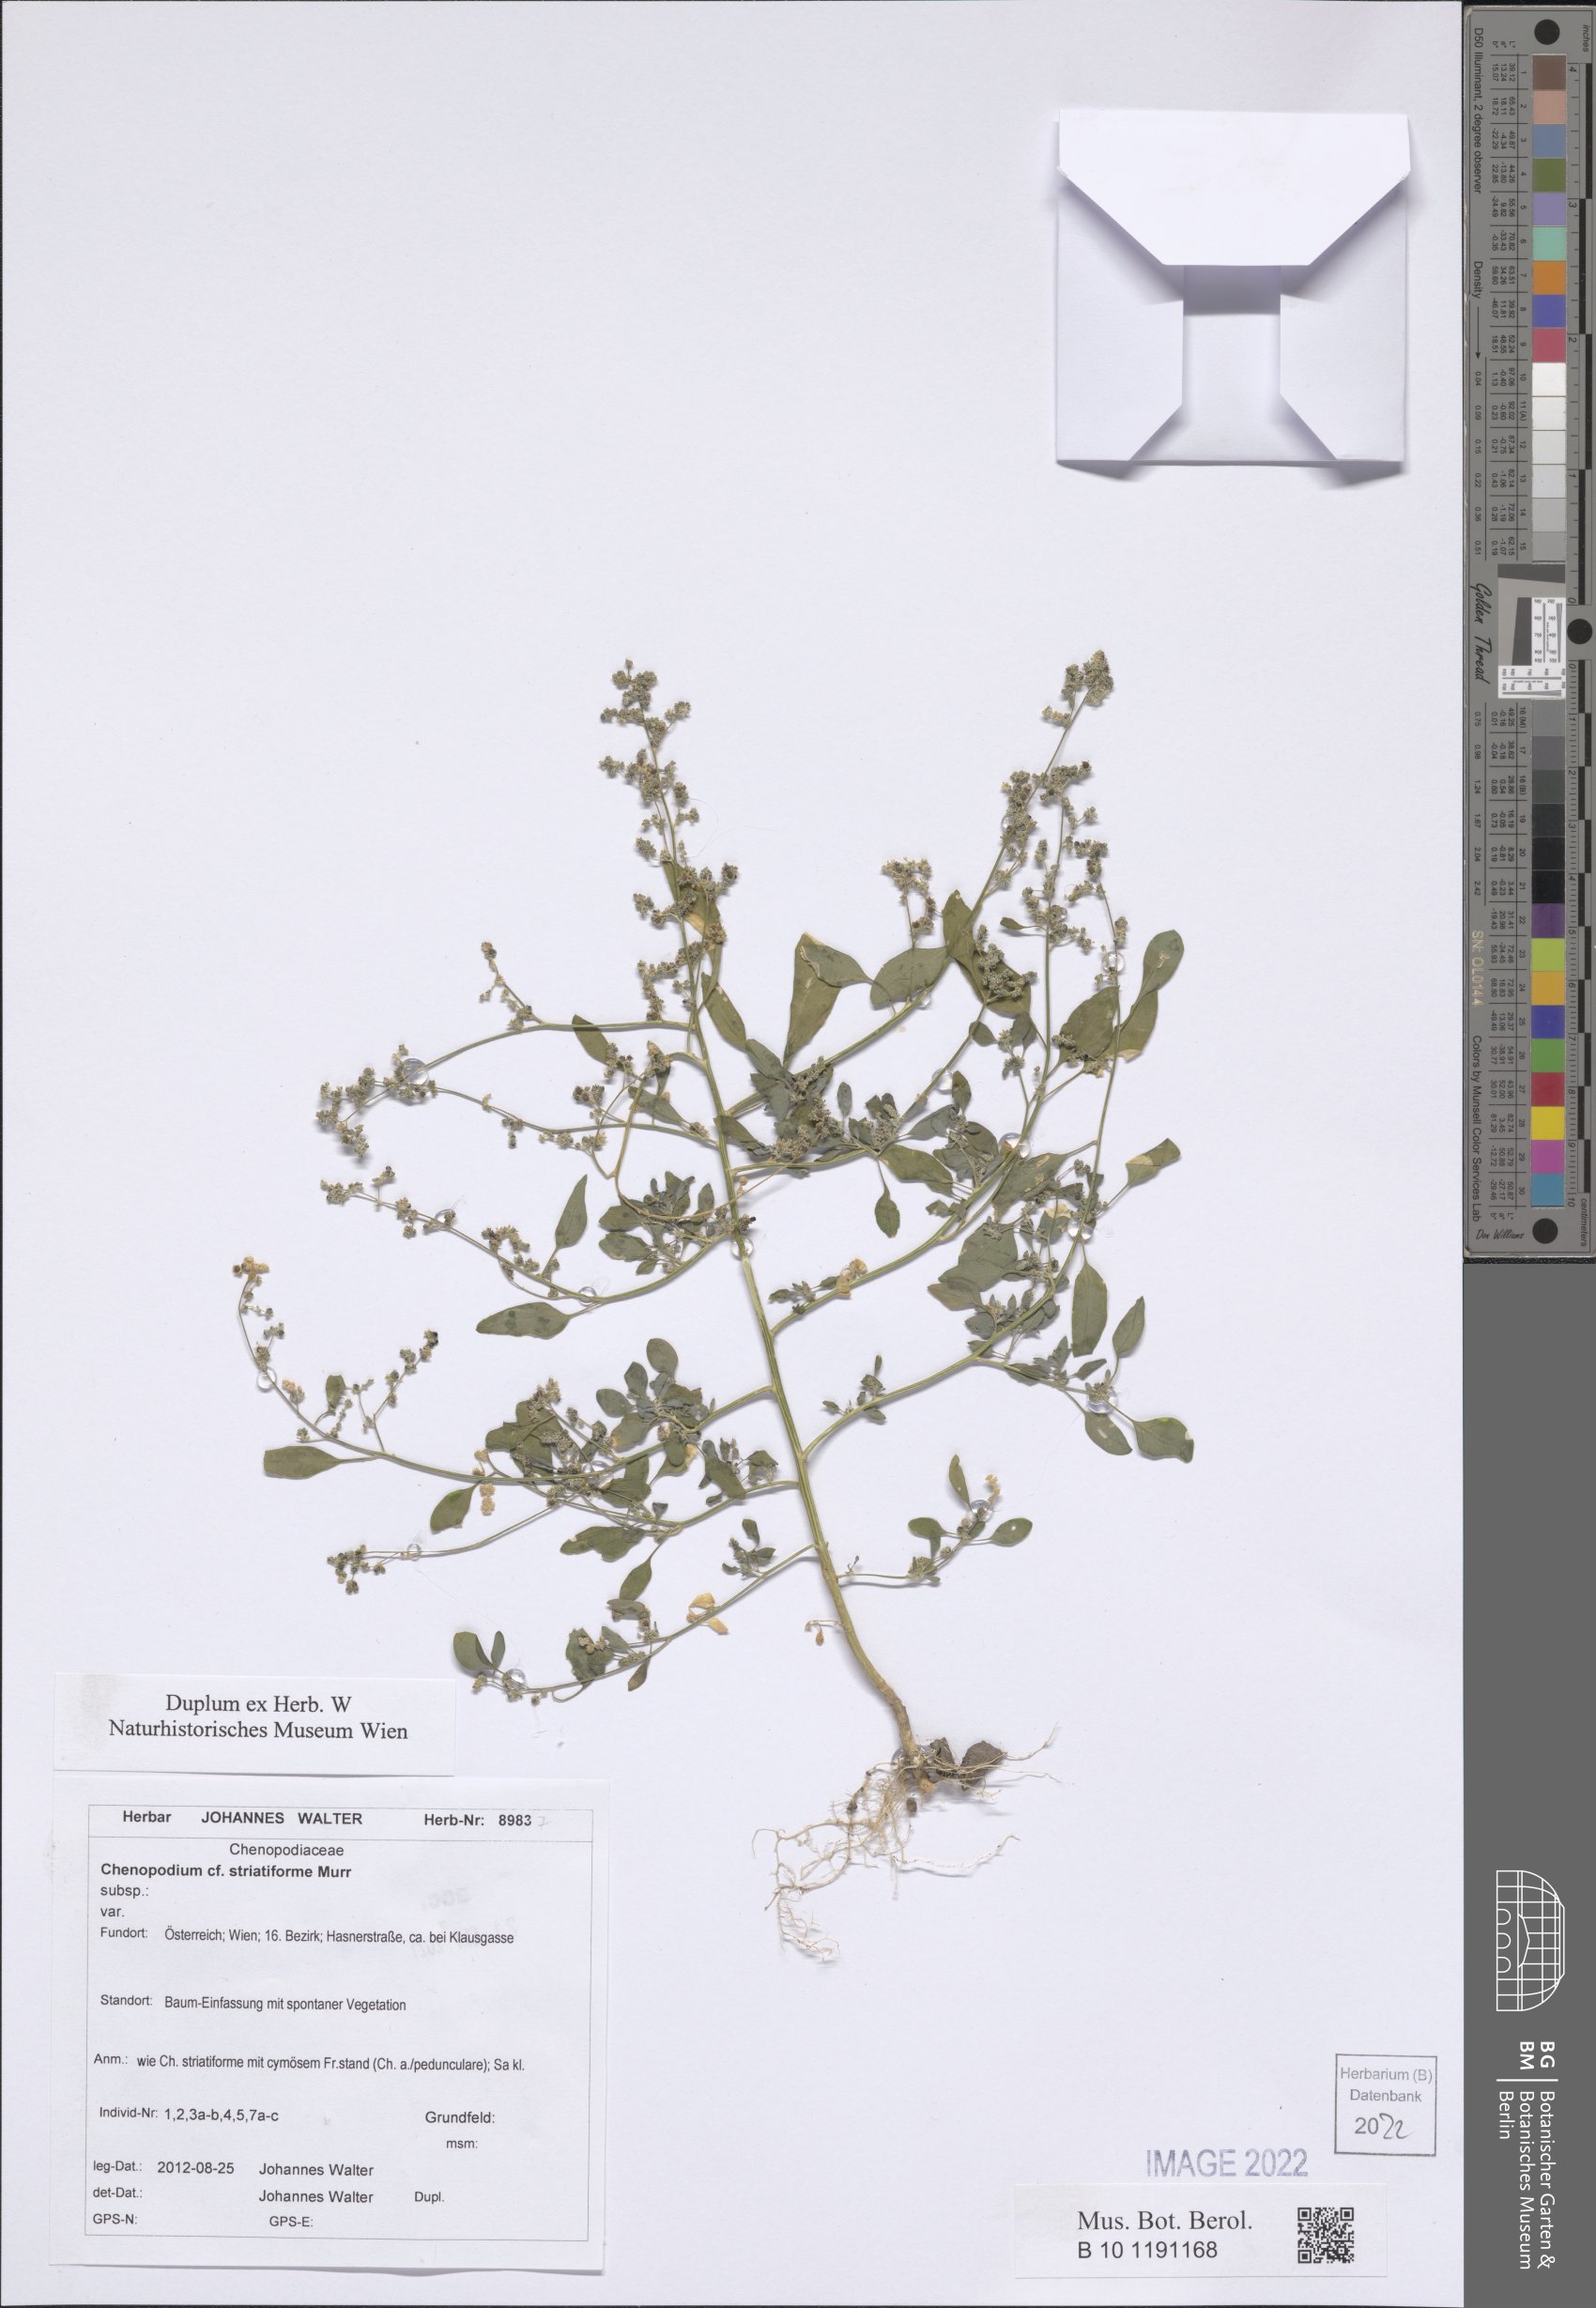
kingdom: Plantae
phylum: Tracheophyta
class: Magnoliopsida
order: Caryophyllales
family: Amaranthaceae
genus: Chenopodium
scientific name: Chenopodium striatiforme
